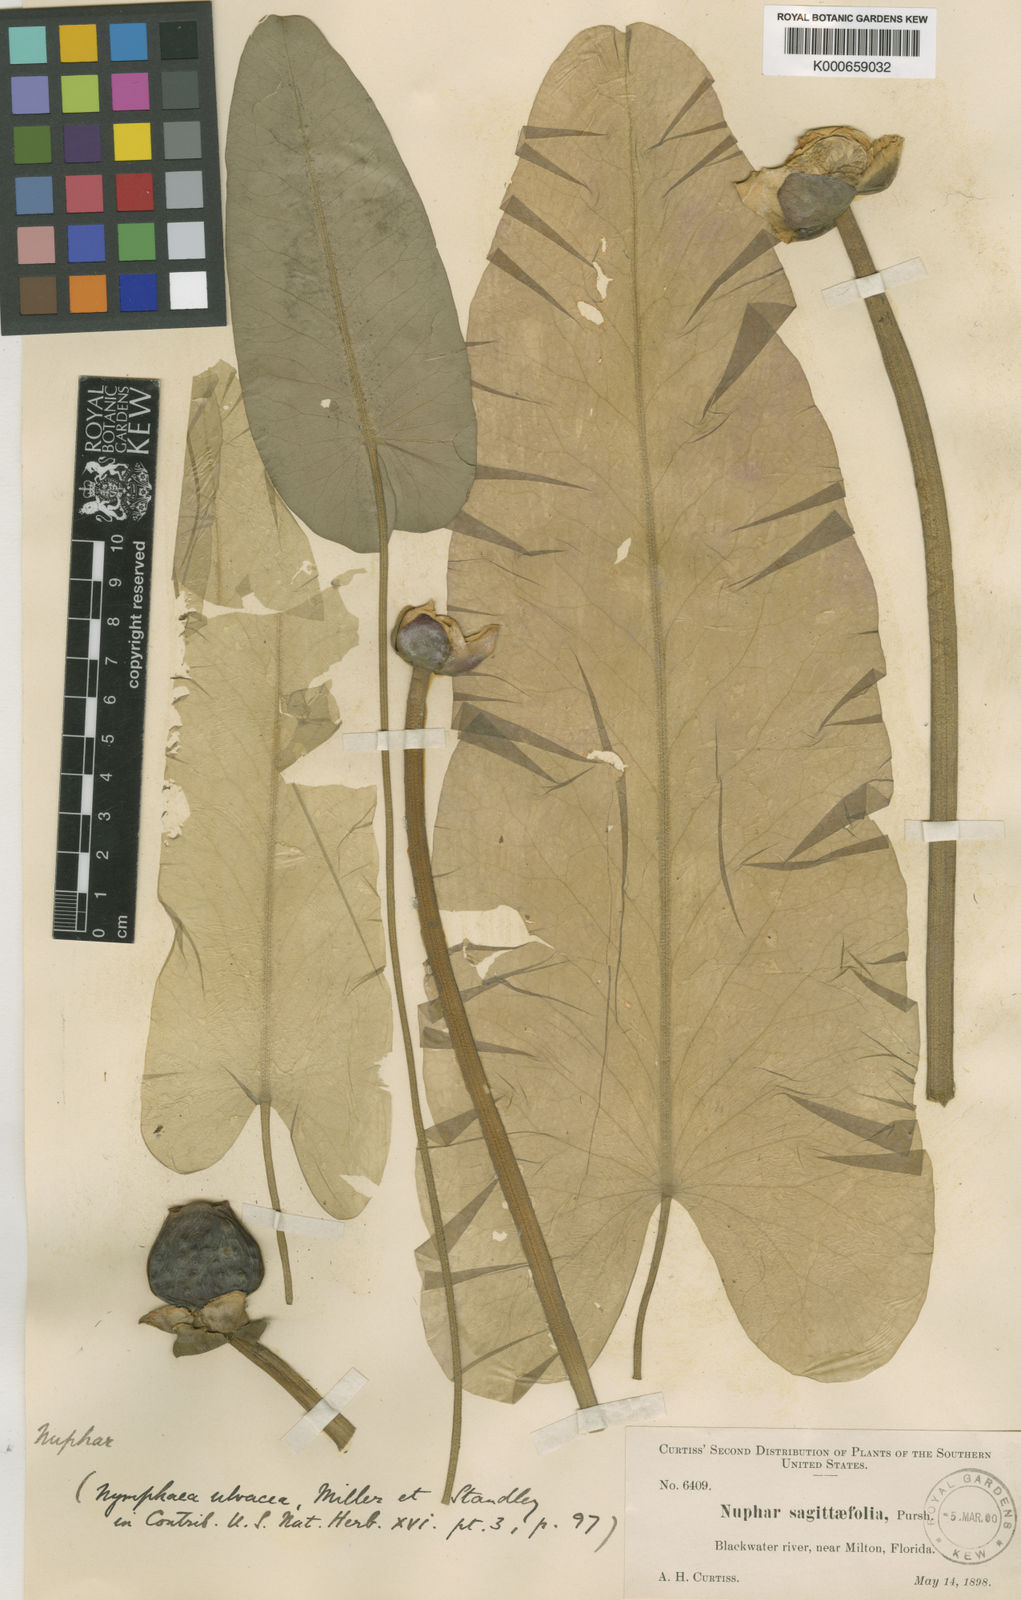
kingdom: Plantae
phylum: Tracheophyta
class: Magnoliopsida
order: Nymphaeales
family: Nymphaeaceae
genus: Nuphar
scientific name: Nuphar advena
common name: Spatter-dock
